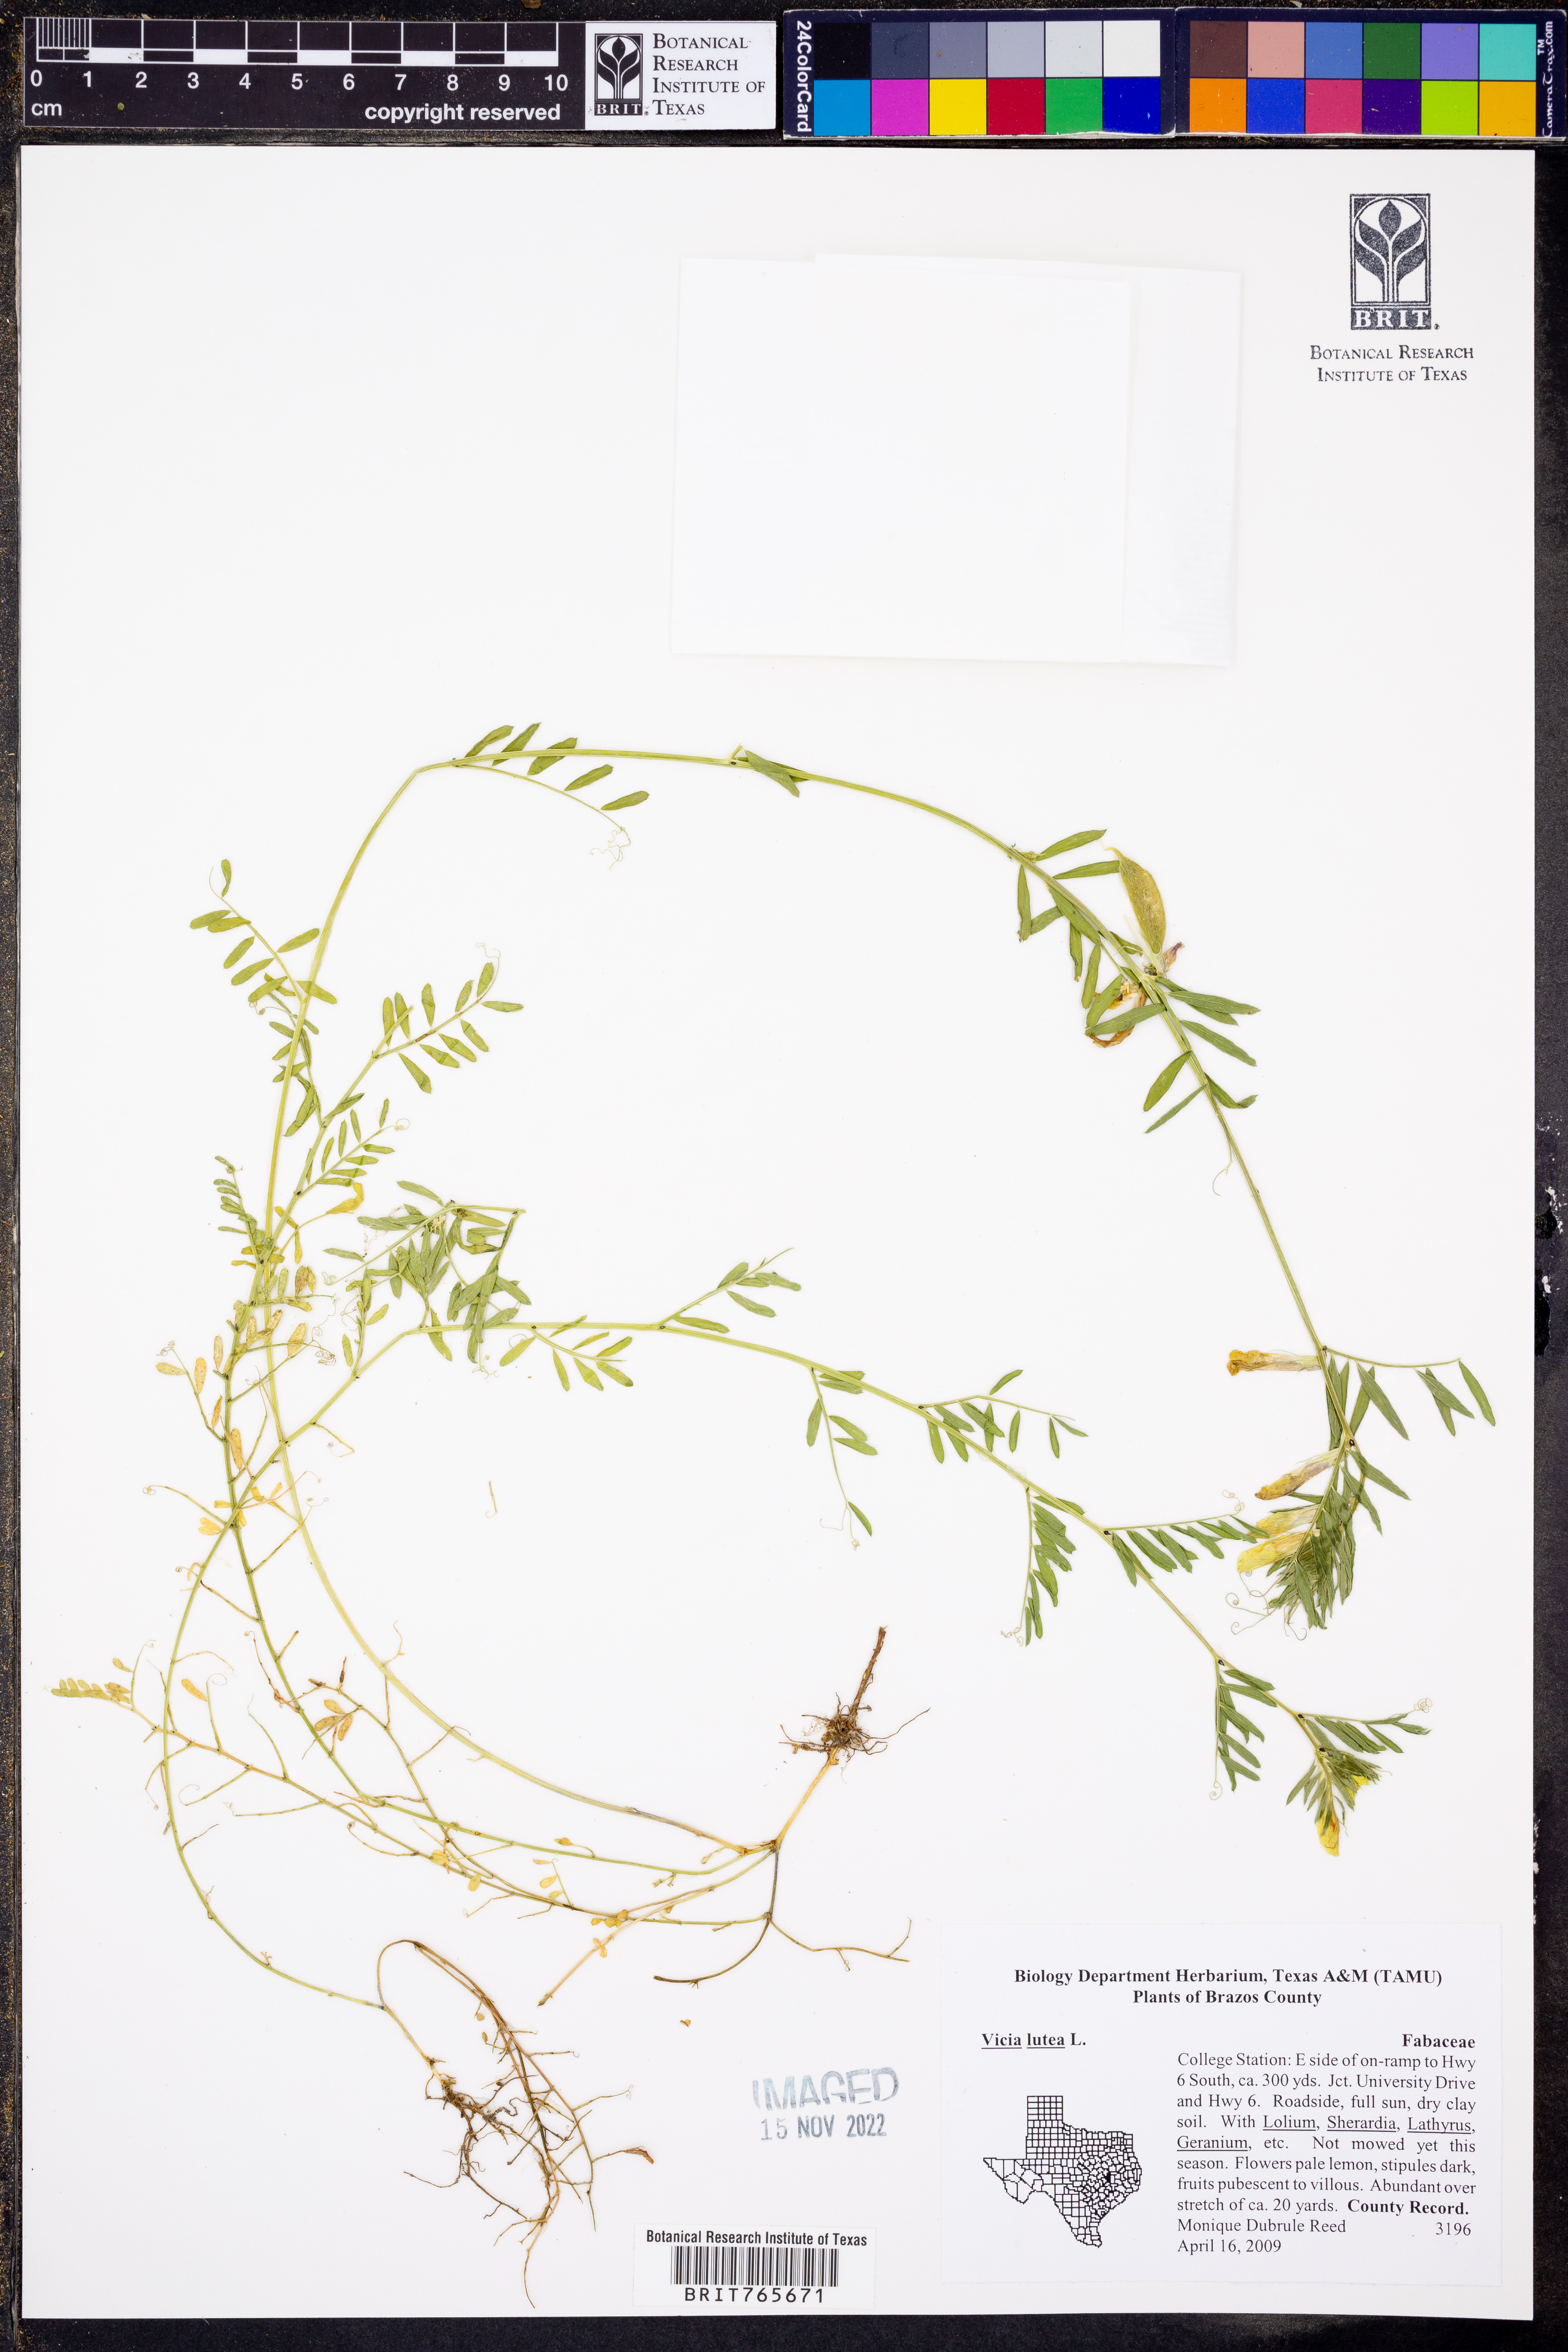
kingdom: Plantae
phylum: Tracheophyta
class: Magnoliopsida
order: Fabales
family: Fabaceae
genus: Vicia
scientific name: Vicia lutea
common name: Smooth yellow vetch
